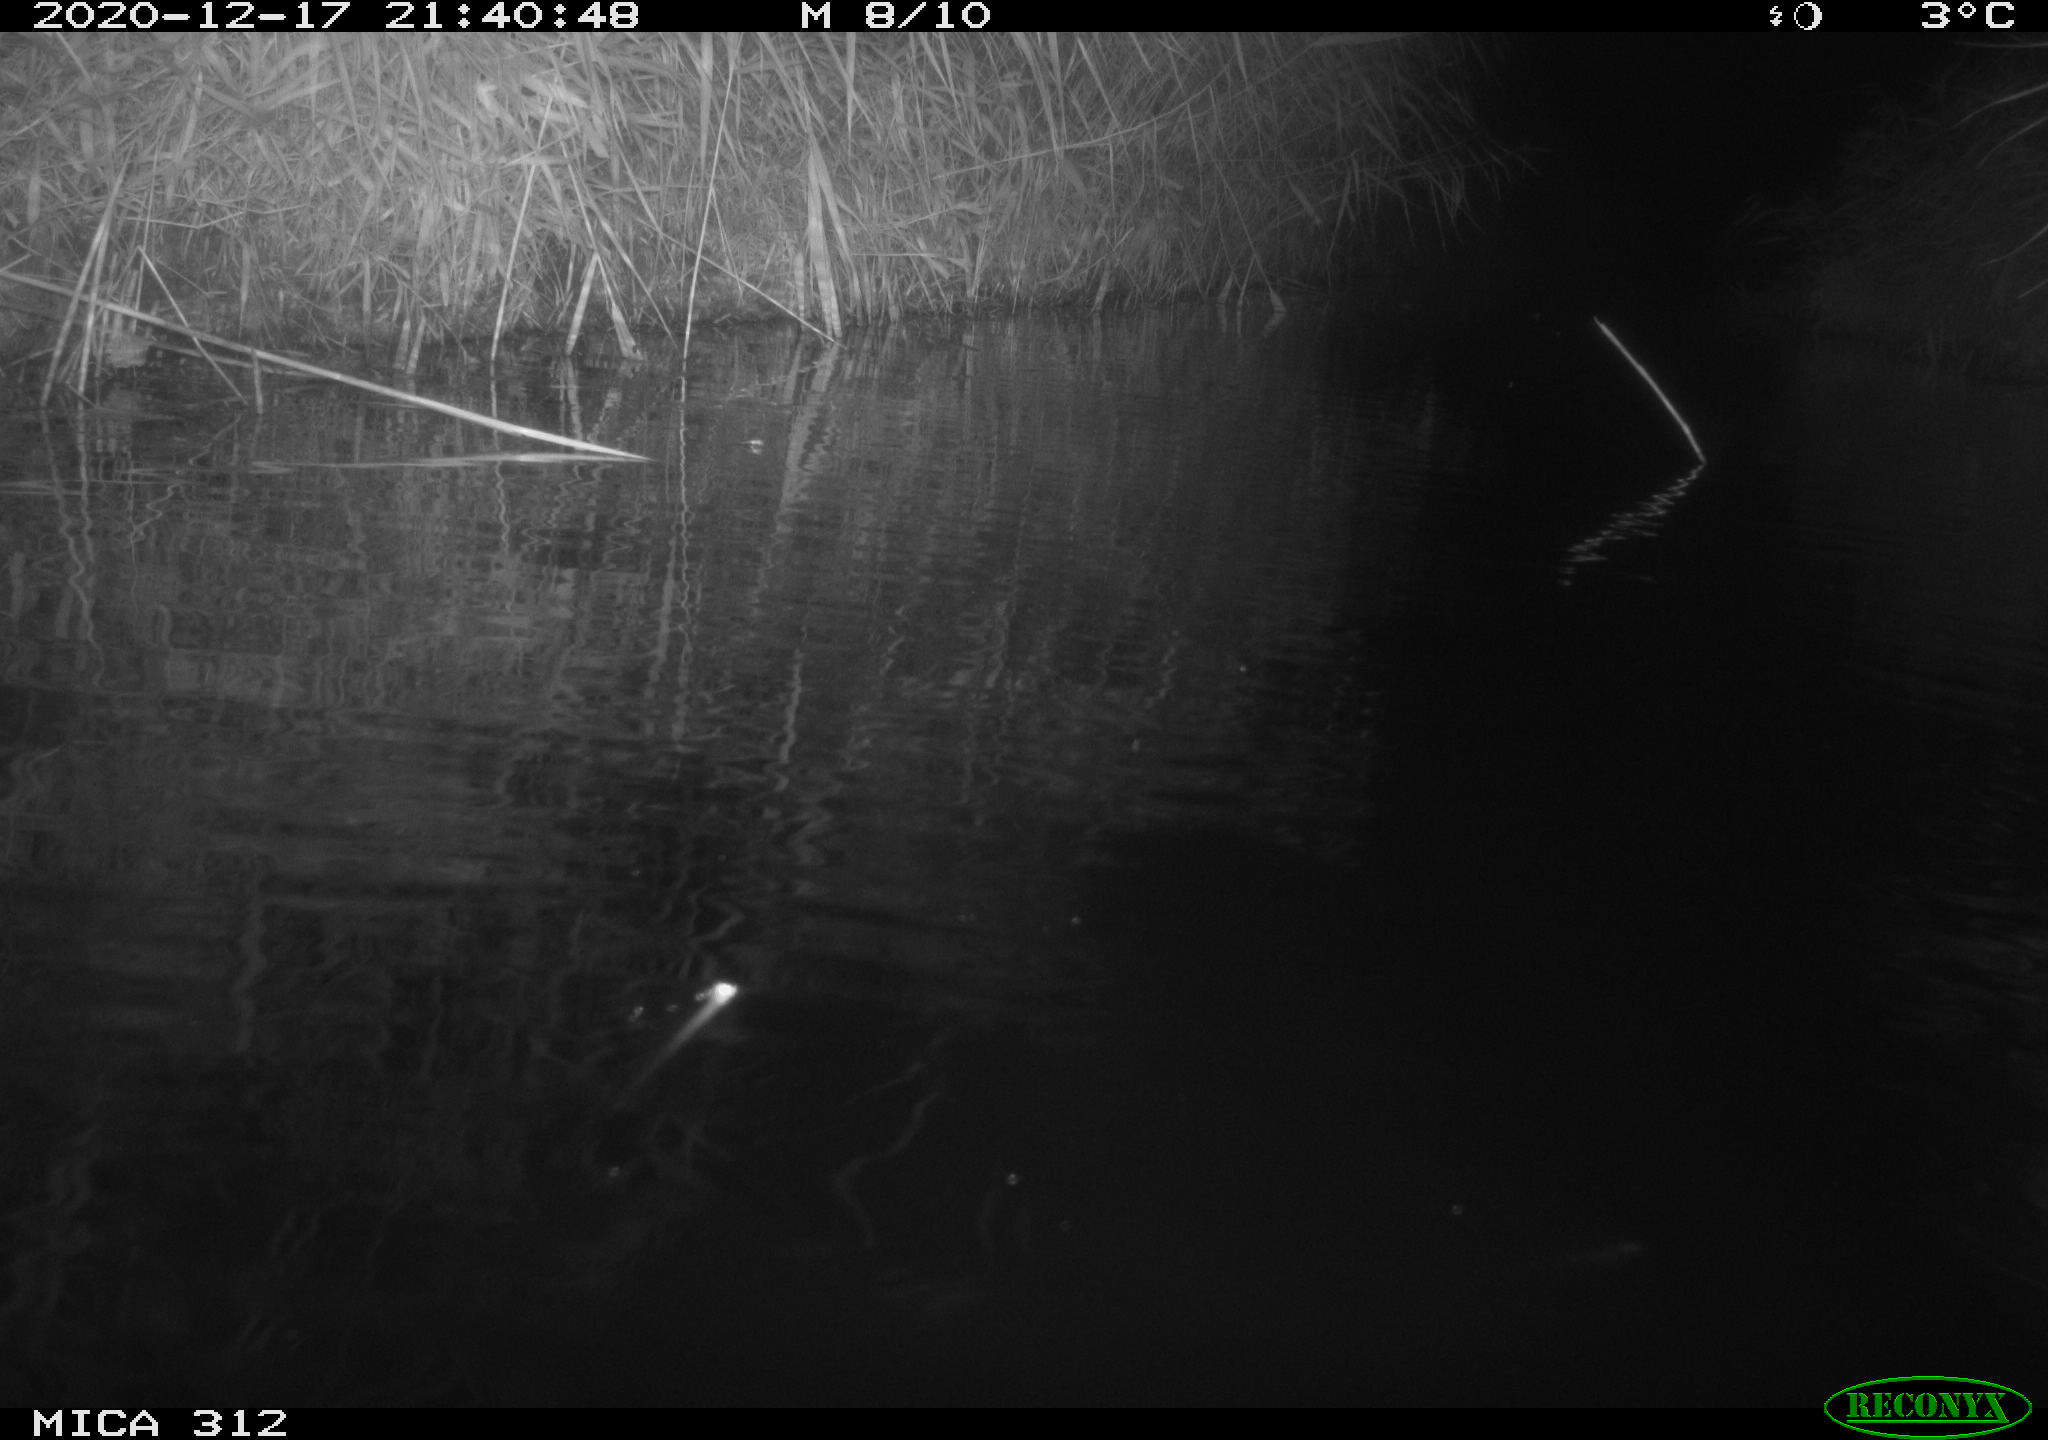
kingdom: Animalia
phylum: Chordata
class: Mammalia
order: Rodentia
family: Muridae
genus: Rattus
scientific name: Rattus norvegicus
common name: Brown rat
